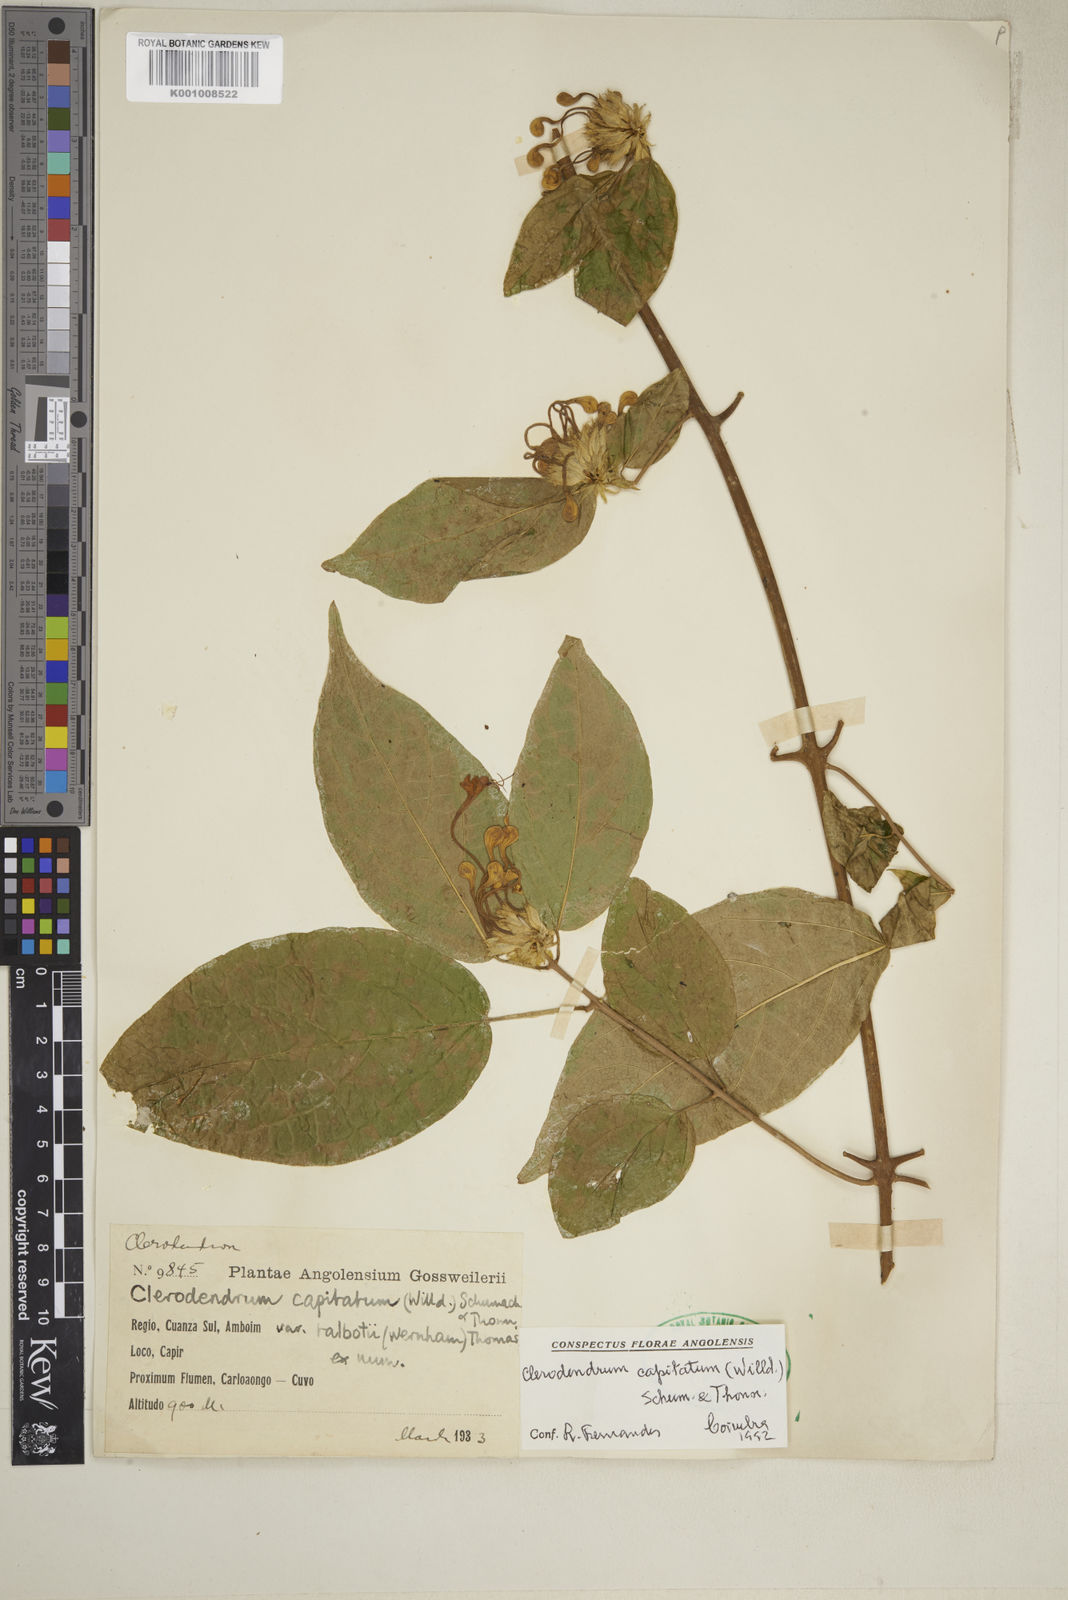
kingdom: Plantae
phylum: Tracheophyta
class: Magnoliopsida
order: Lamiales
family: Lamiaceae
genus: Clerodendrum
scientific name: Clerodendrum capitatum
